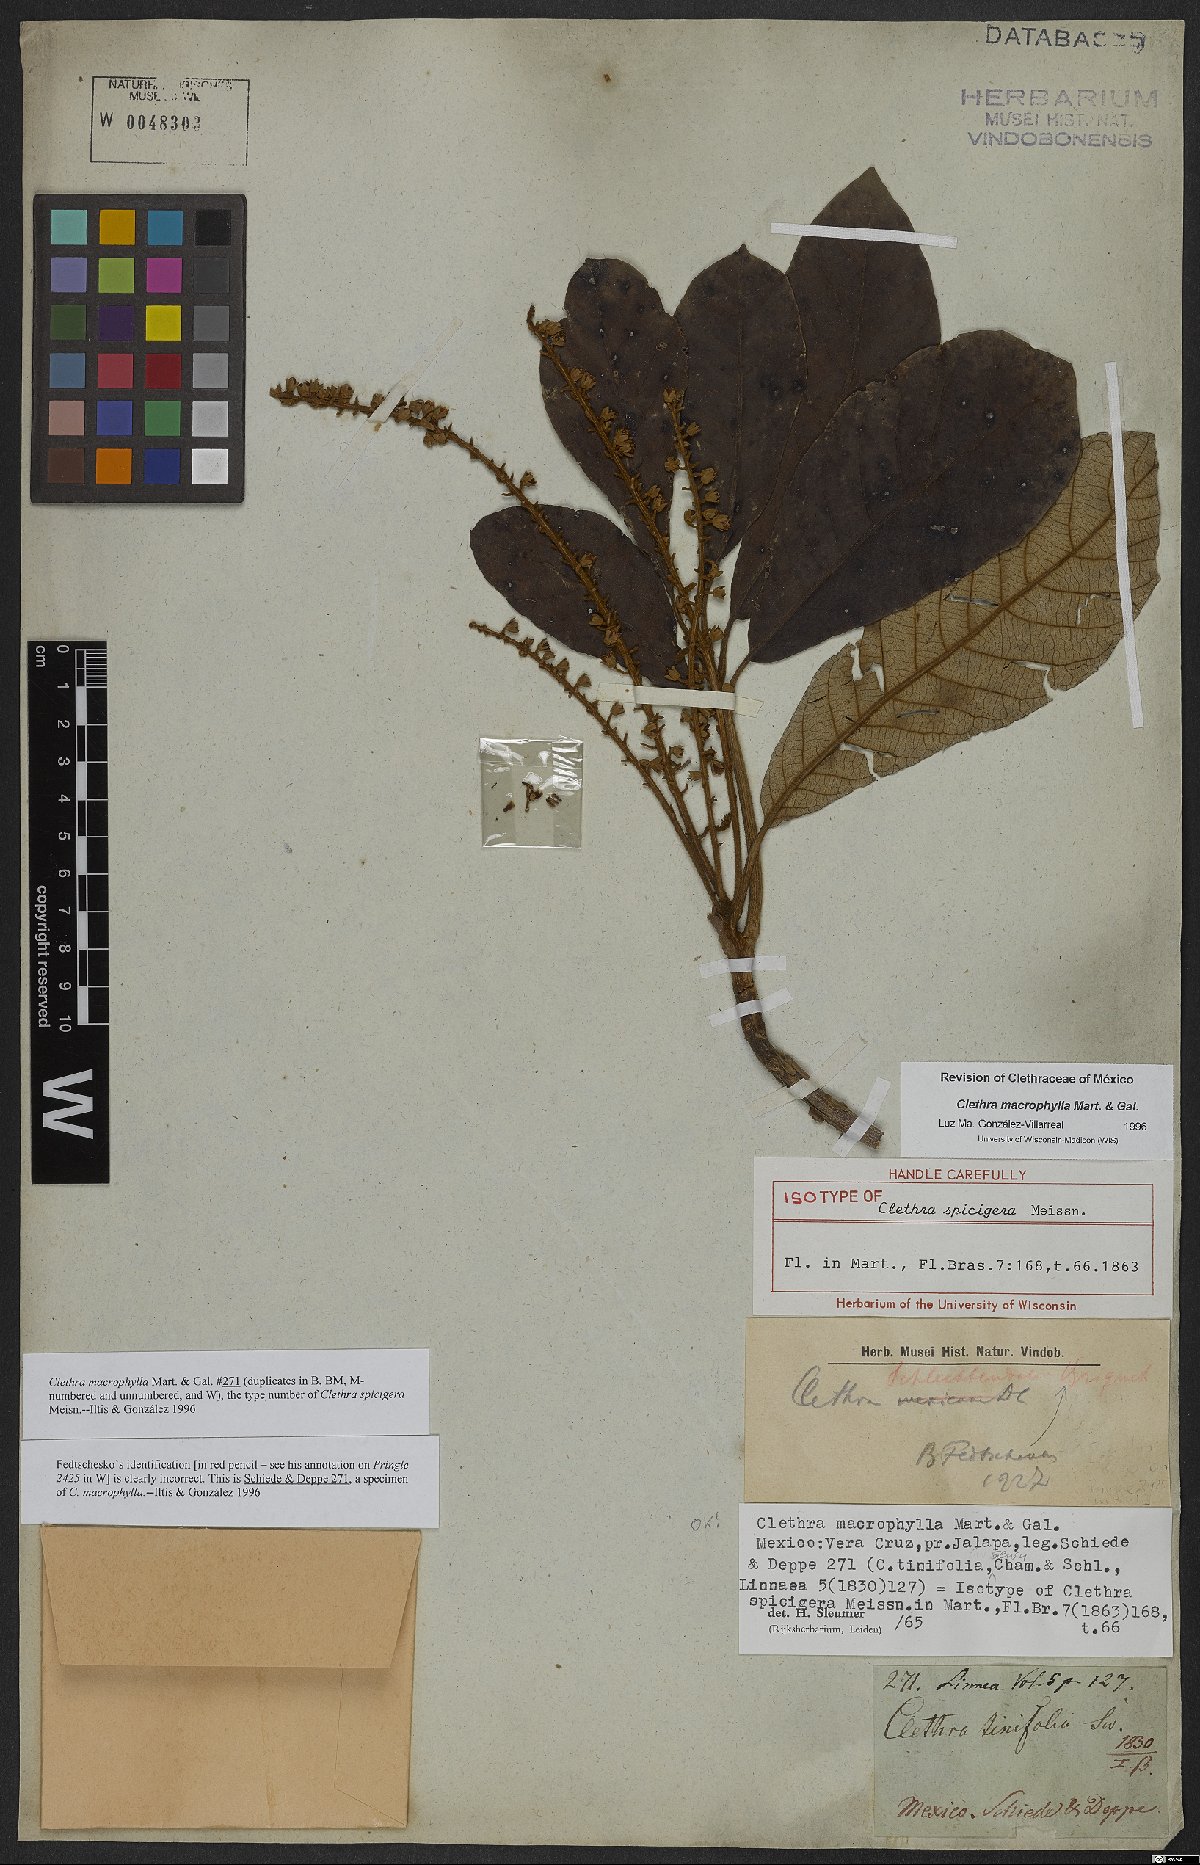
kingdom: Plantae
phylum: Tracheophyta
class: Magnoliopsida
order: Ericales
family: Clethraceae
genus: Clethra
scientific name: Clethra macrophylla
